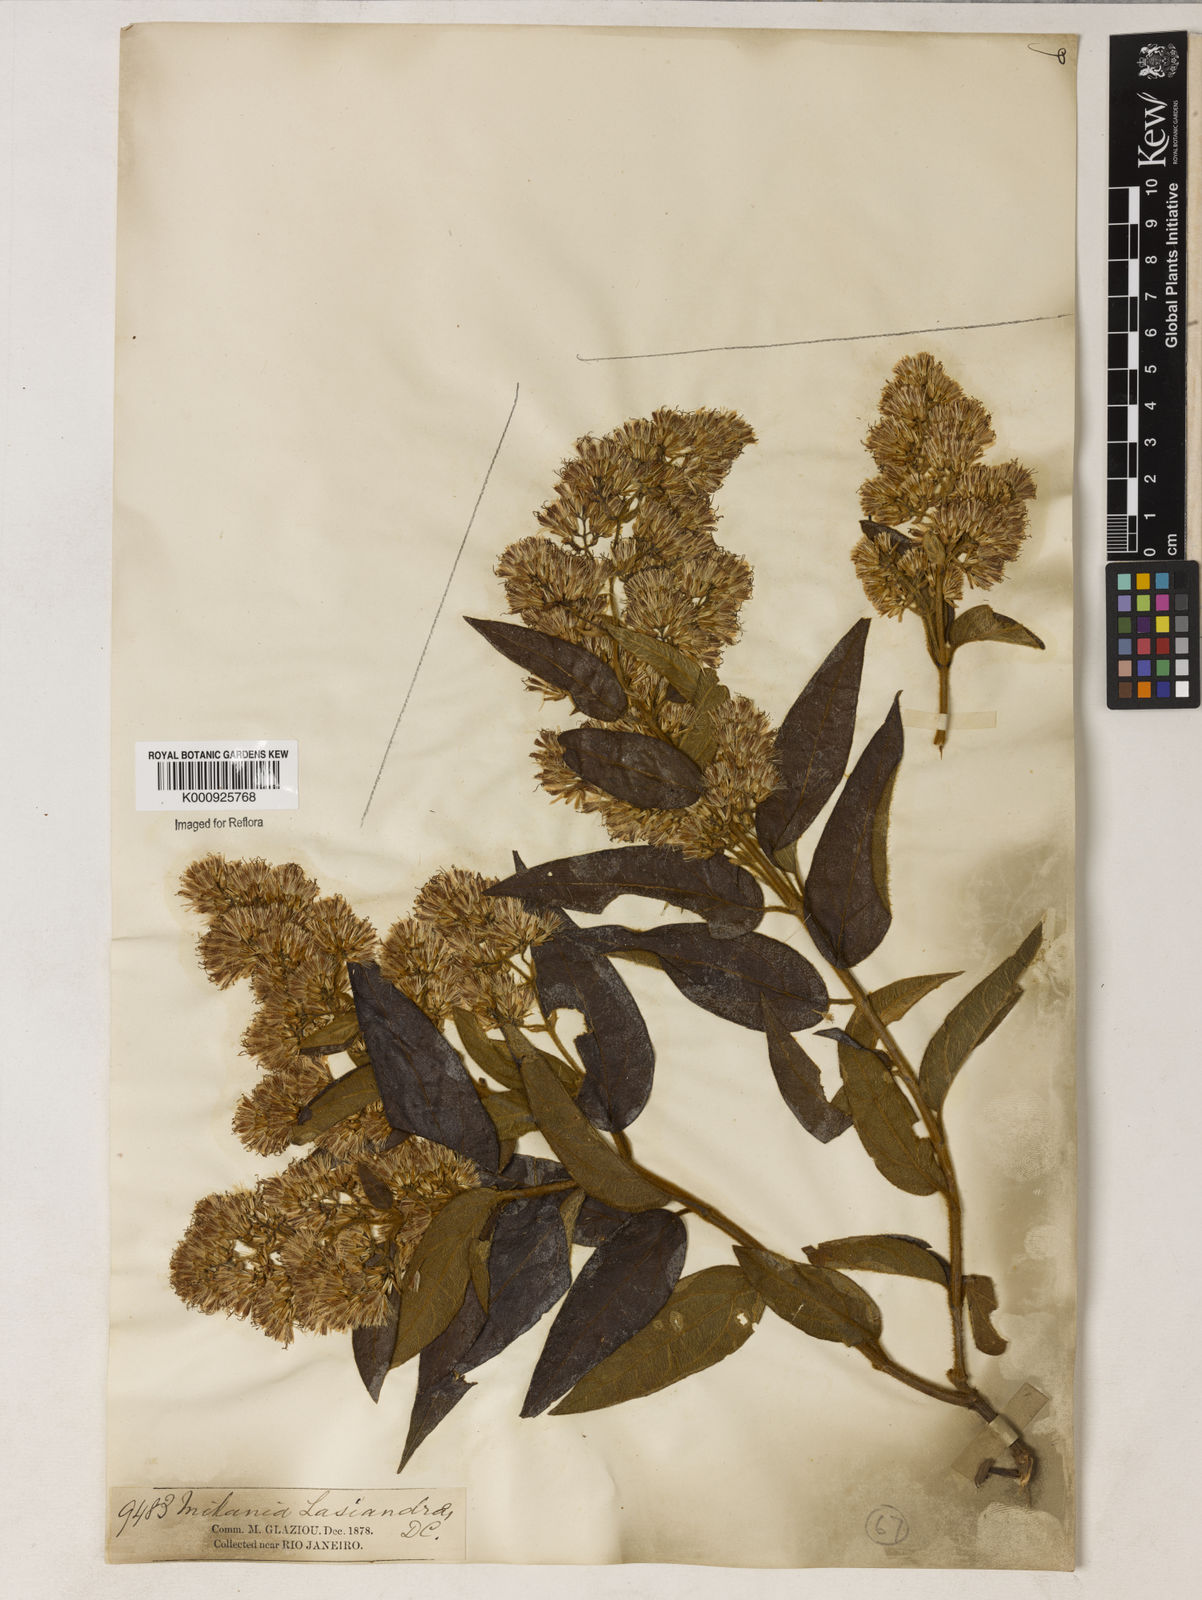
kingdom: Plantae
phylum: Tracheophyta
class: Magnoliopsida
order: Asterales
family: Asteraceae
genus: Mikania
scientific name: Mikania lasiandrae
